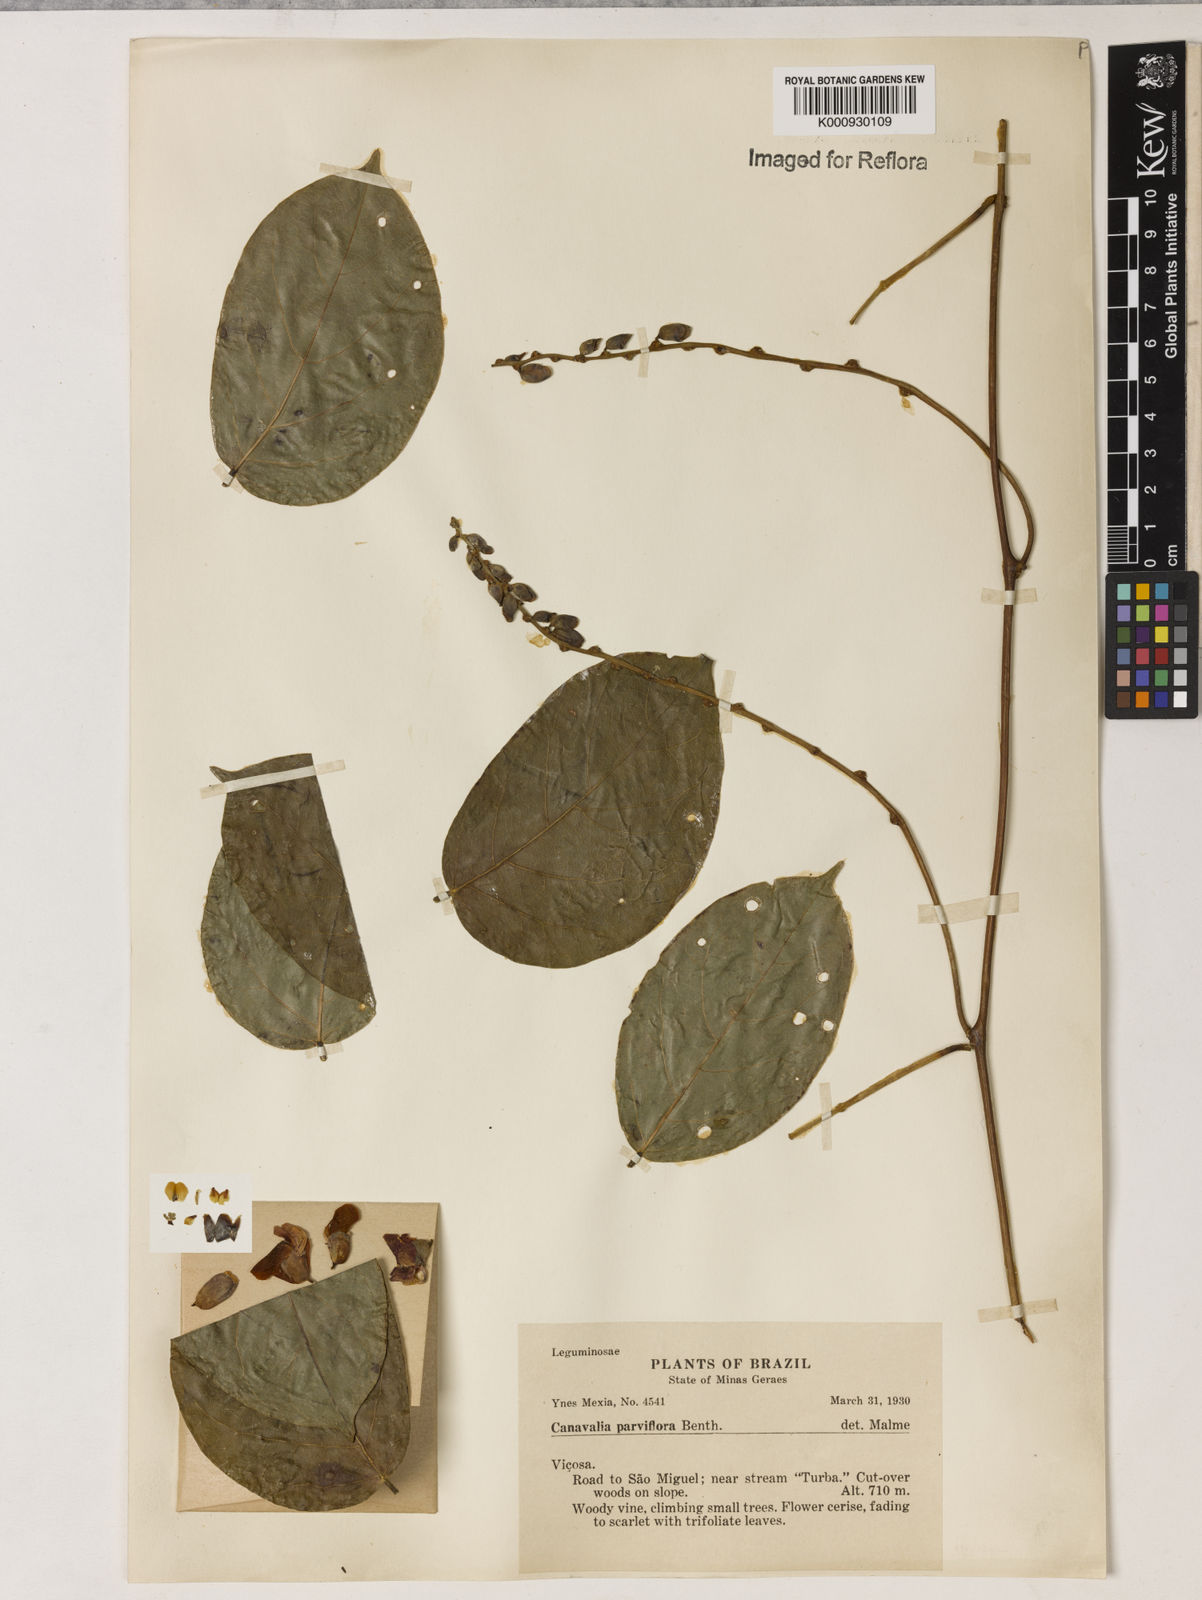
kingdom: Plantae
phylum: Tracheophyta
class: Magnoliopsida
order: Fabales
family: Fabaceae
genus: Canavalia
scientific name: Canavalia parviflora
